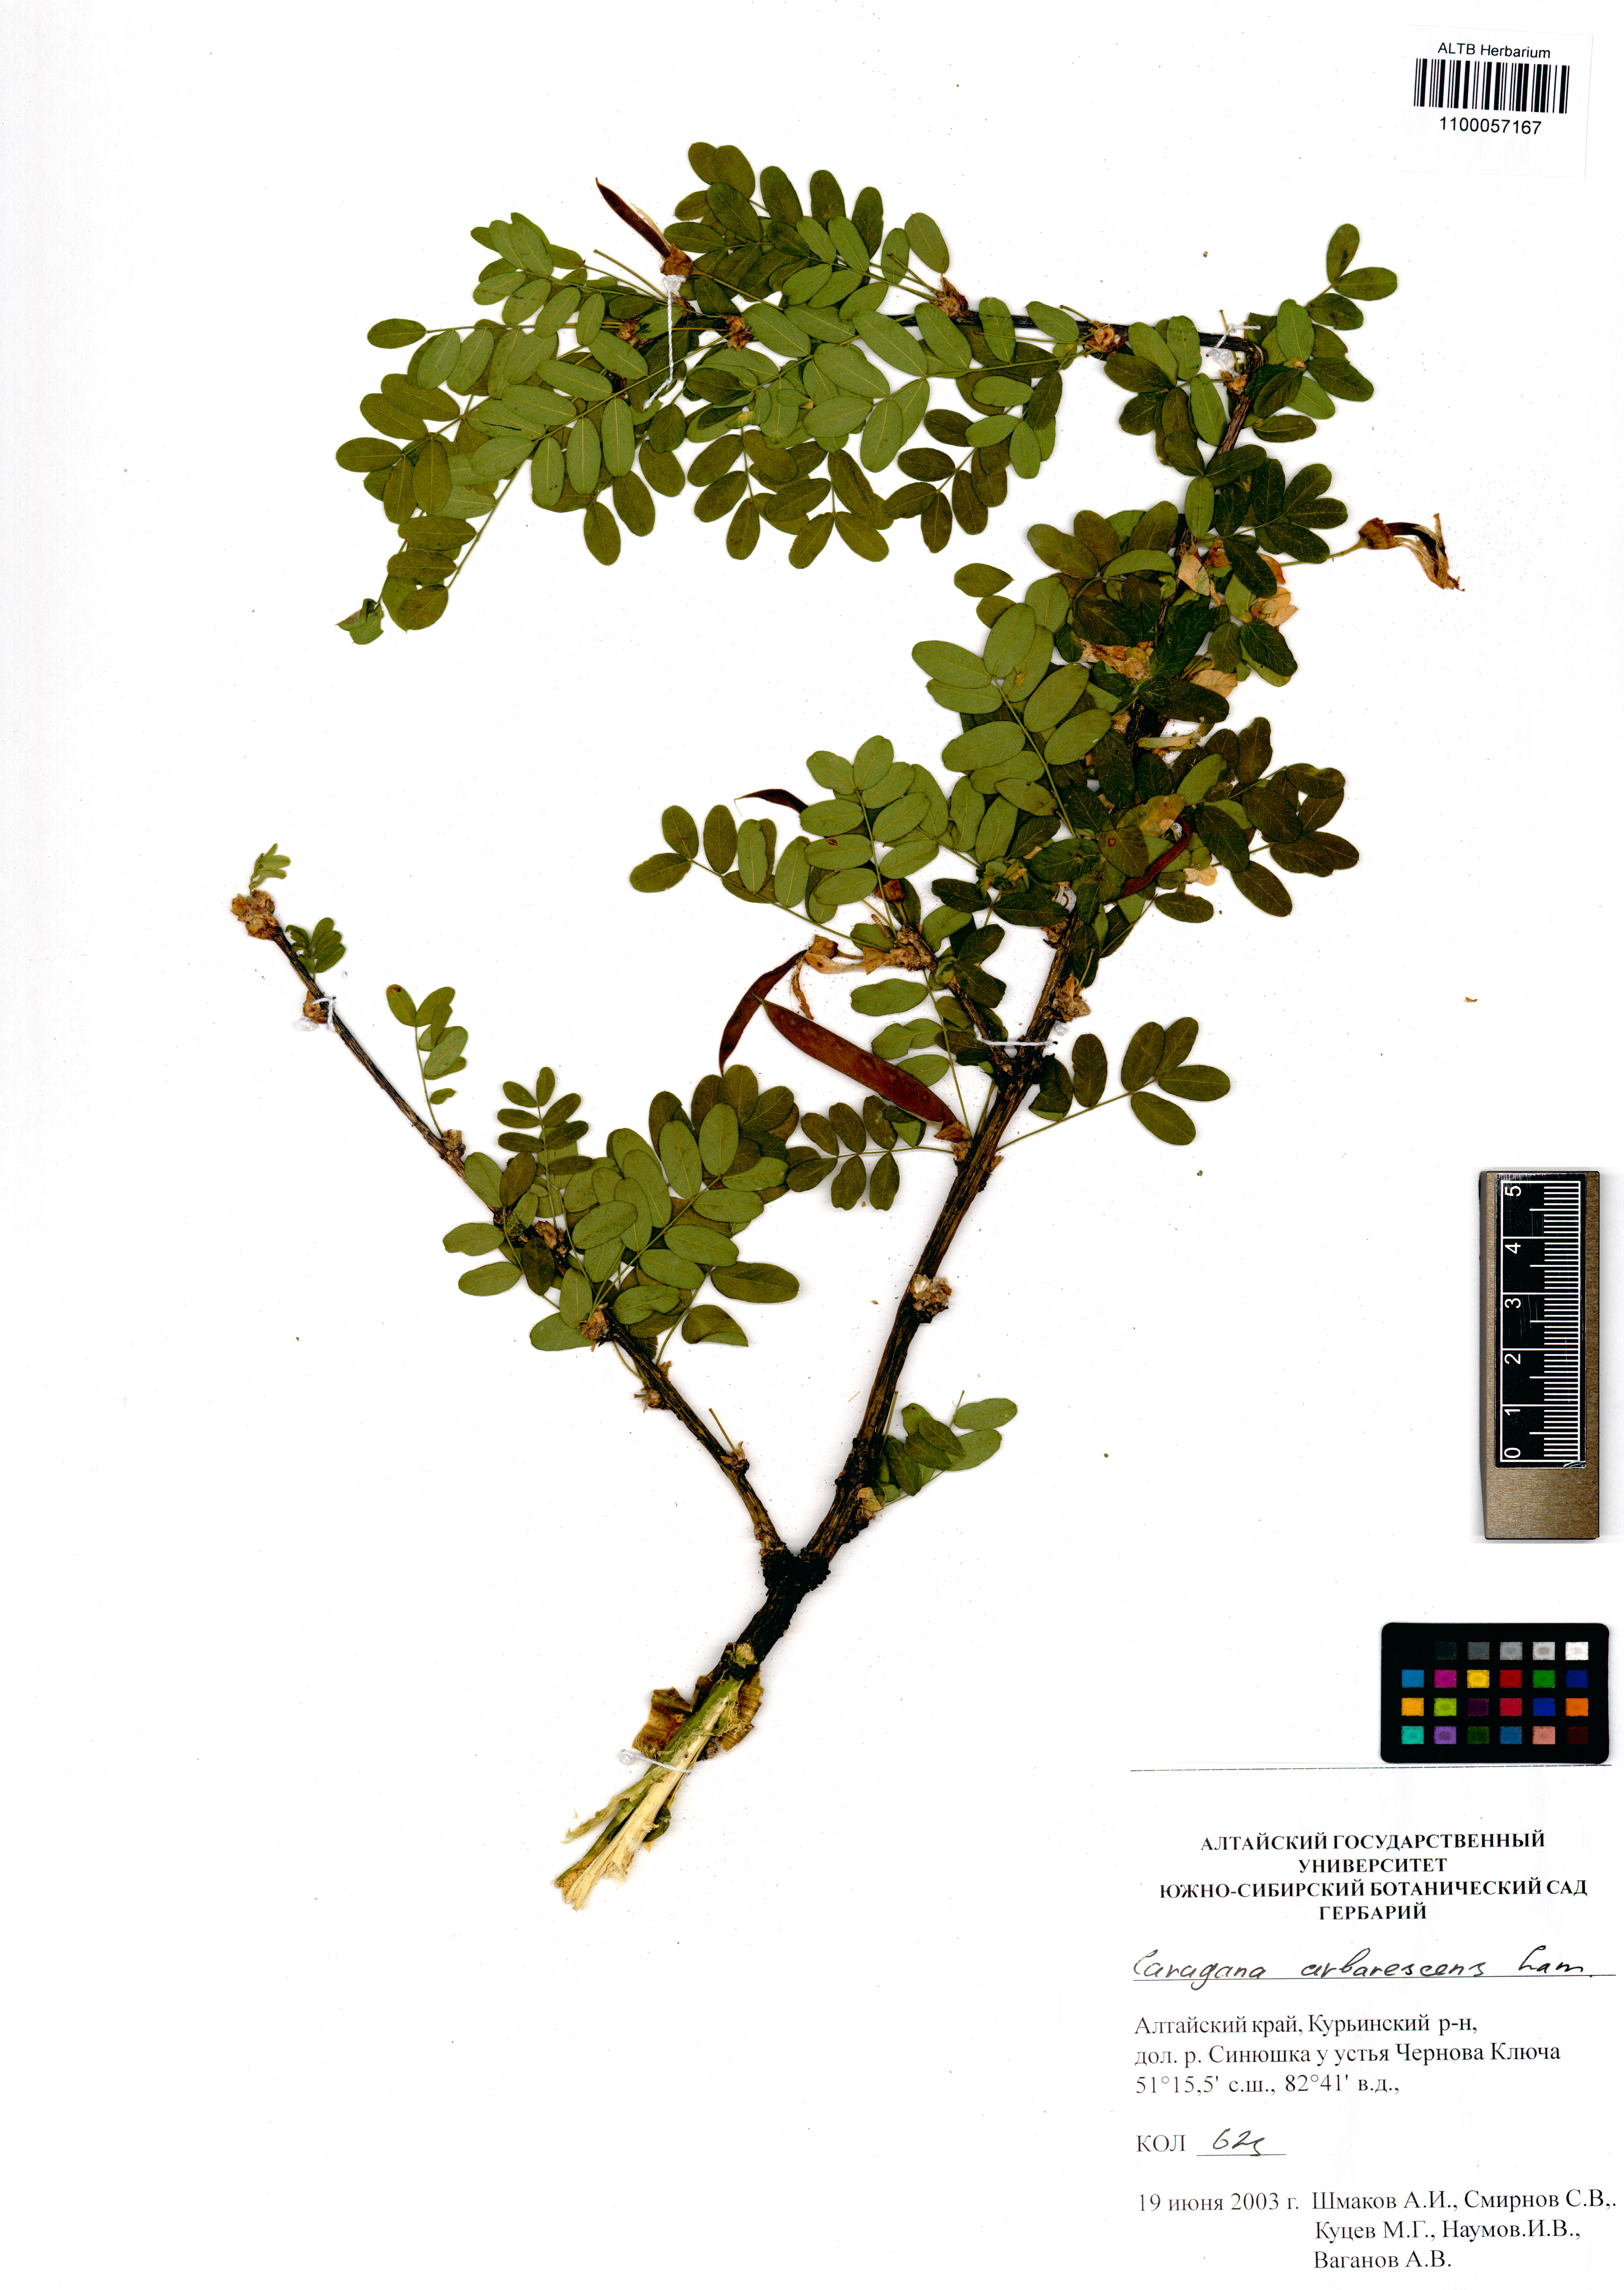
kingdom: Plantae
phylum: Tracheophyta
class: Magnoliopsida
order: Fabales
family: Fabaceae
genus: Caragana
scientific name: Caragana arborescens
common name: Siberian peashrub
